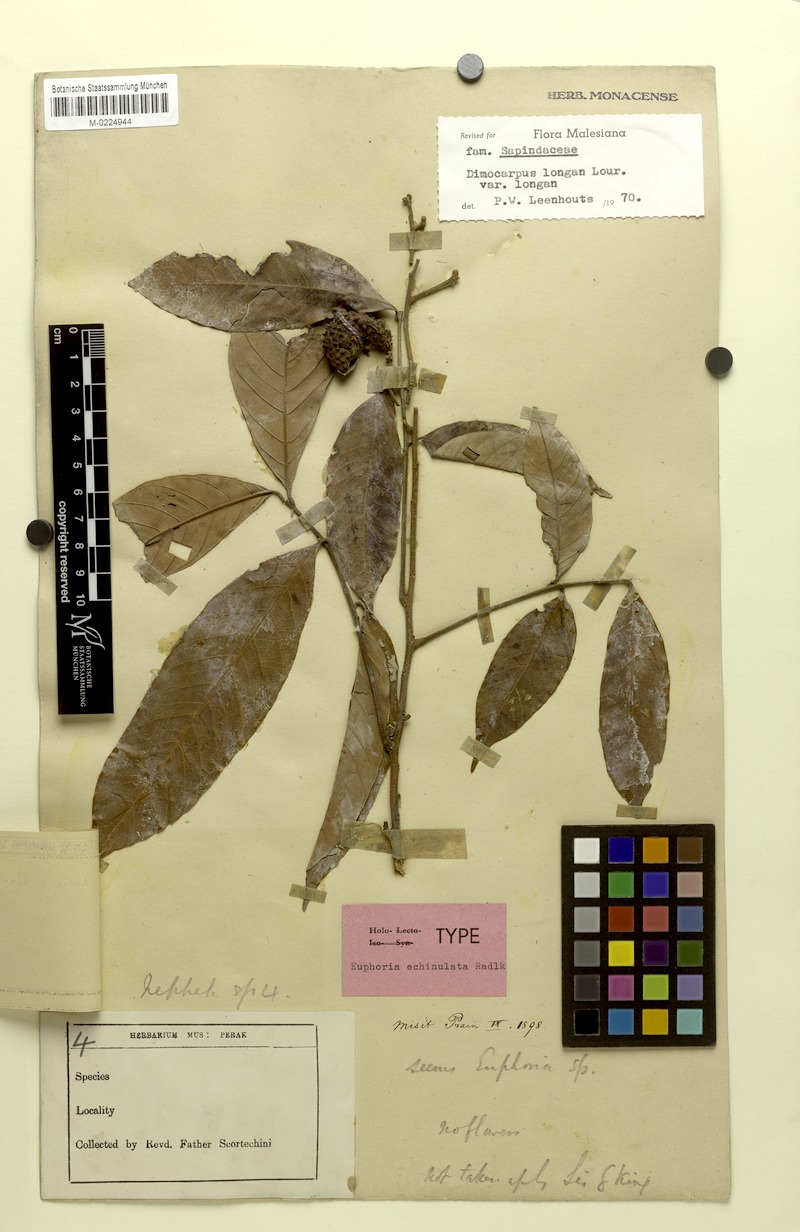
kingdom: Plantae
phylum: Tracheophyta
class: Magnoliopsida
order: Sapindales
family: Sapindaceae
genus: Dimocarpus
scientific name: Dimocarpus longan
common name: Longan
